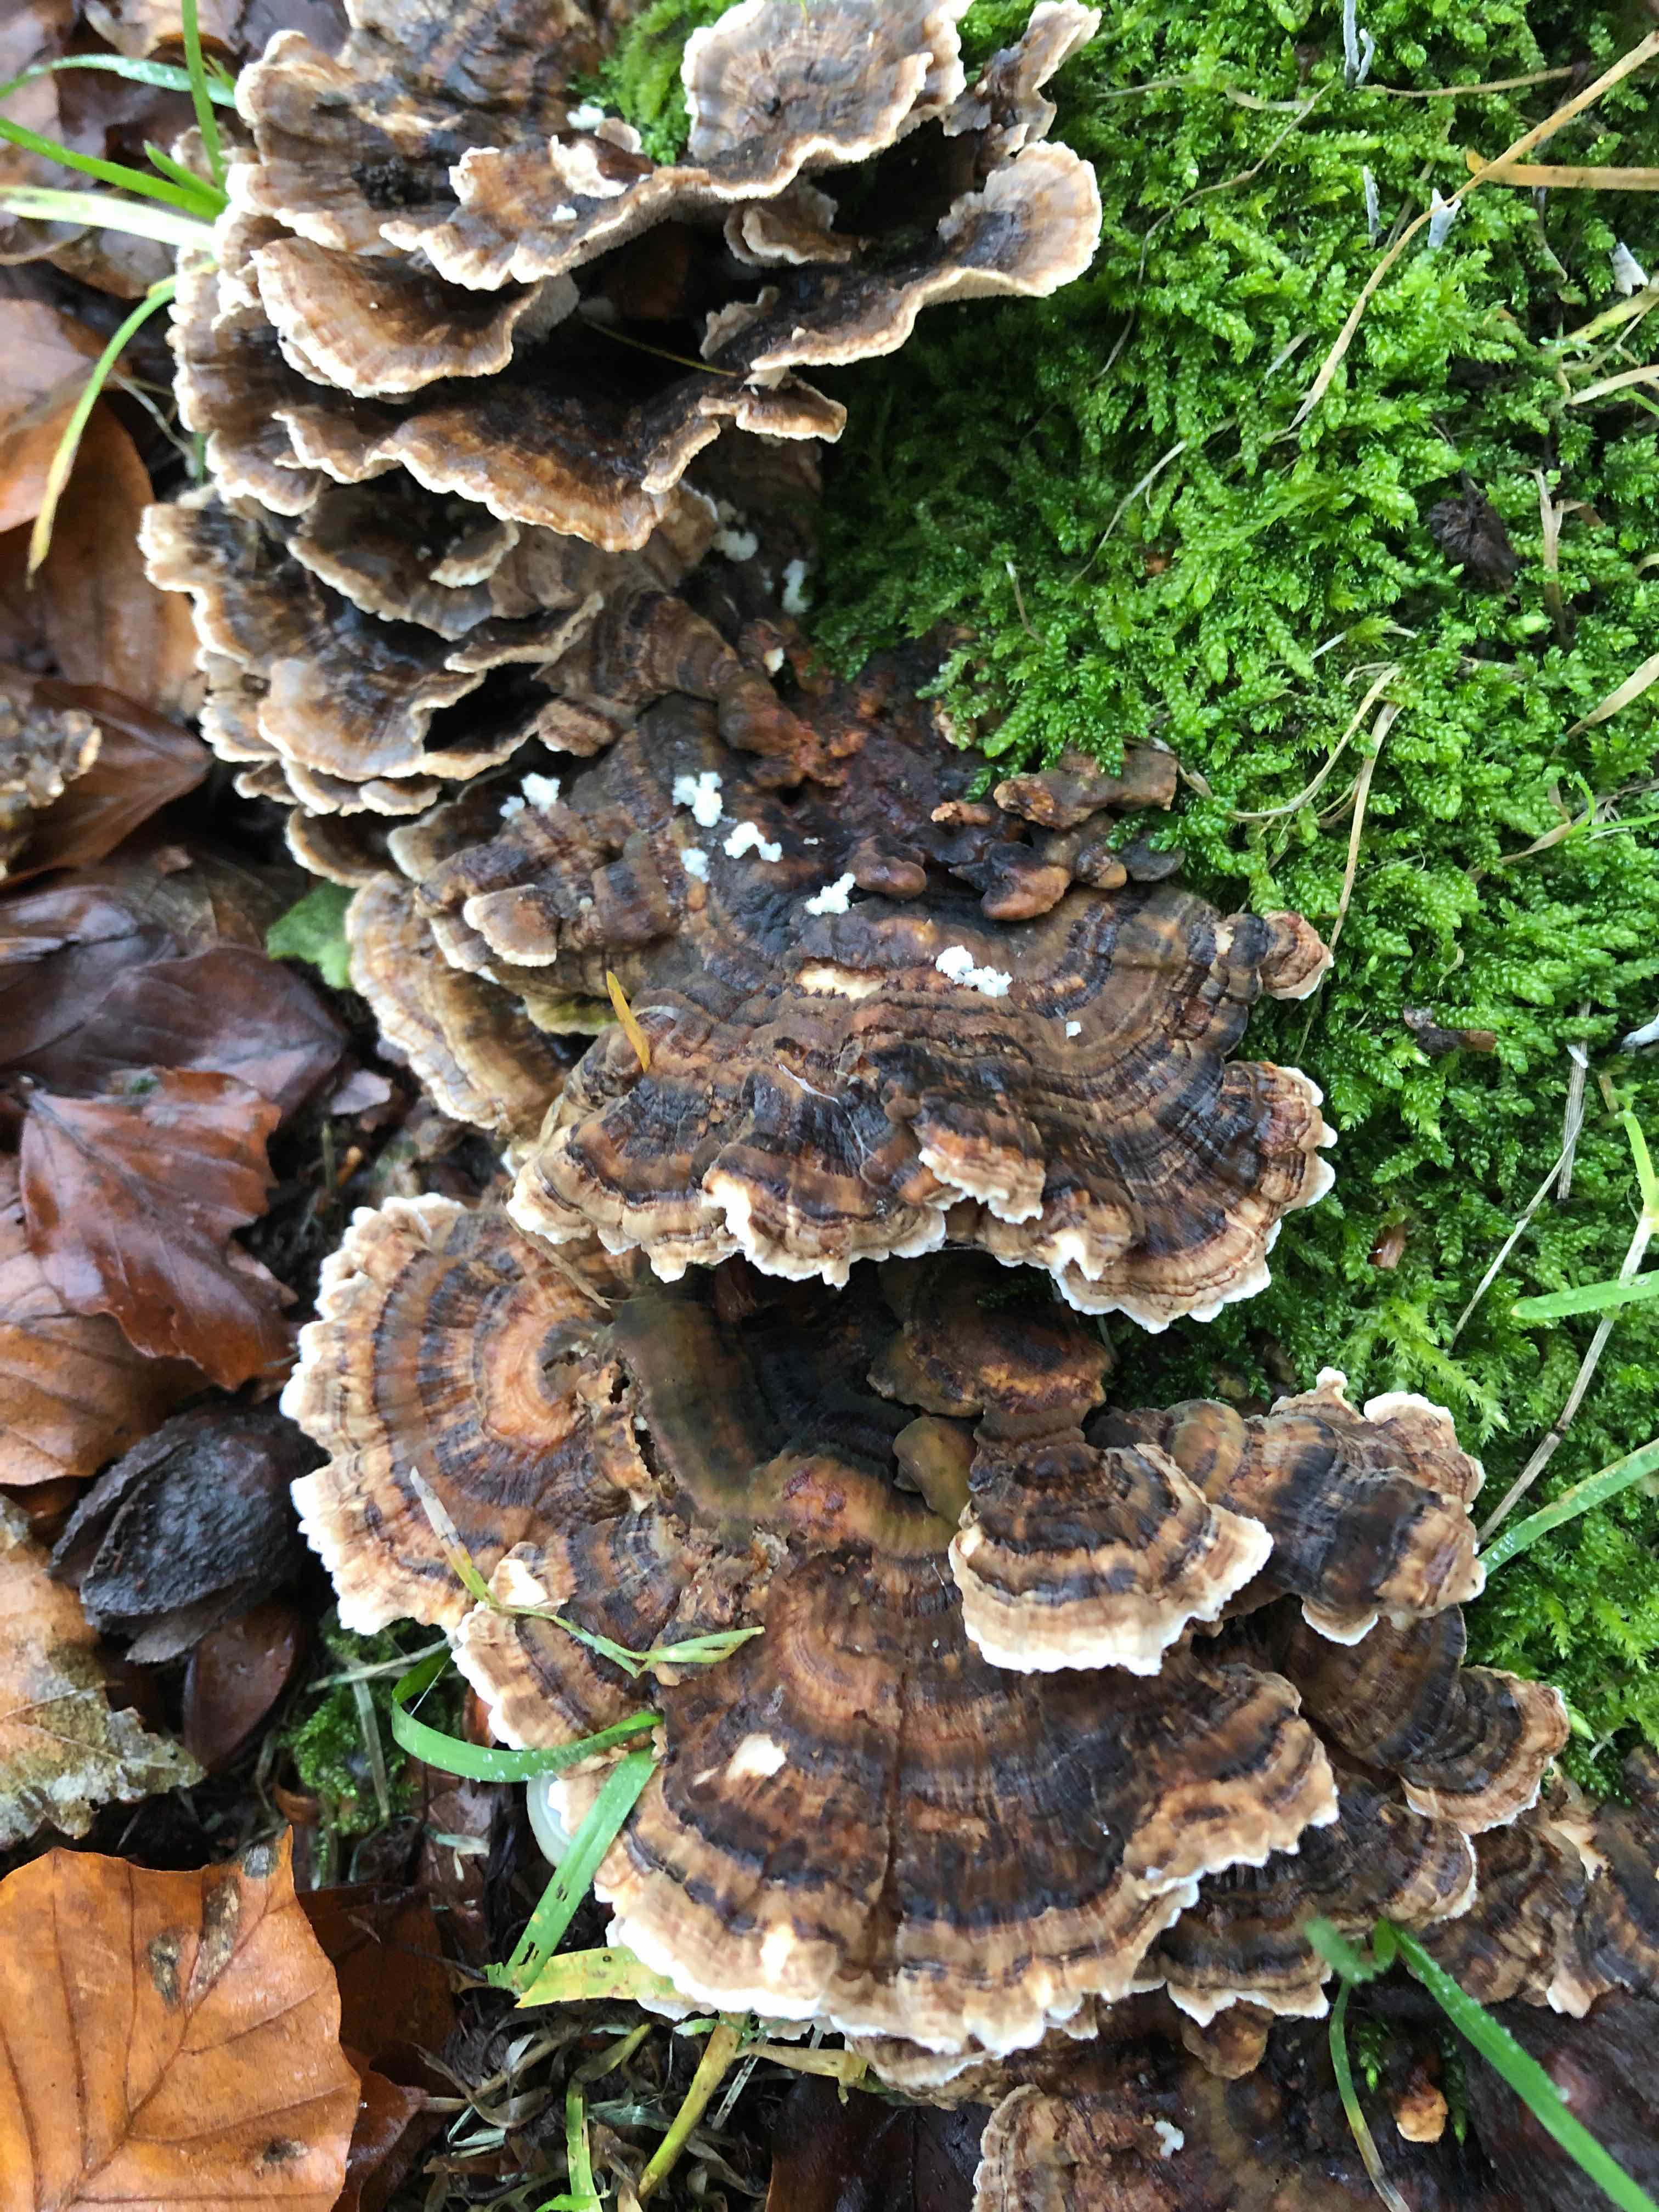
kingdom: Fungi
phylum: Basidiomycota
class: Agaricomycetes
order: Polyporales
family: Polyporaceae
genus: Trametes
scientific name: Trametes versicolor
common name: broget læderporesvamp
